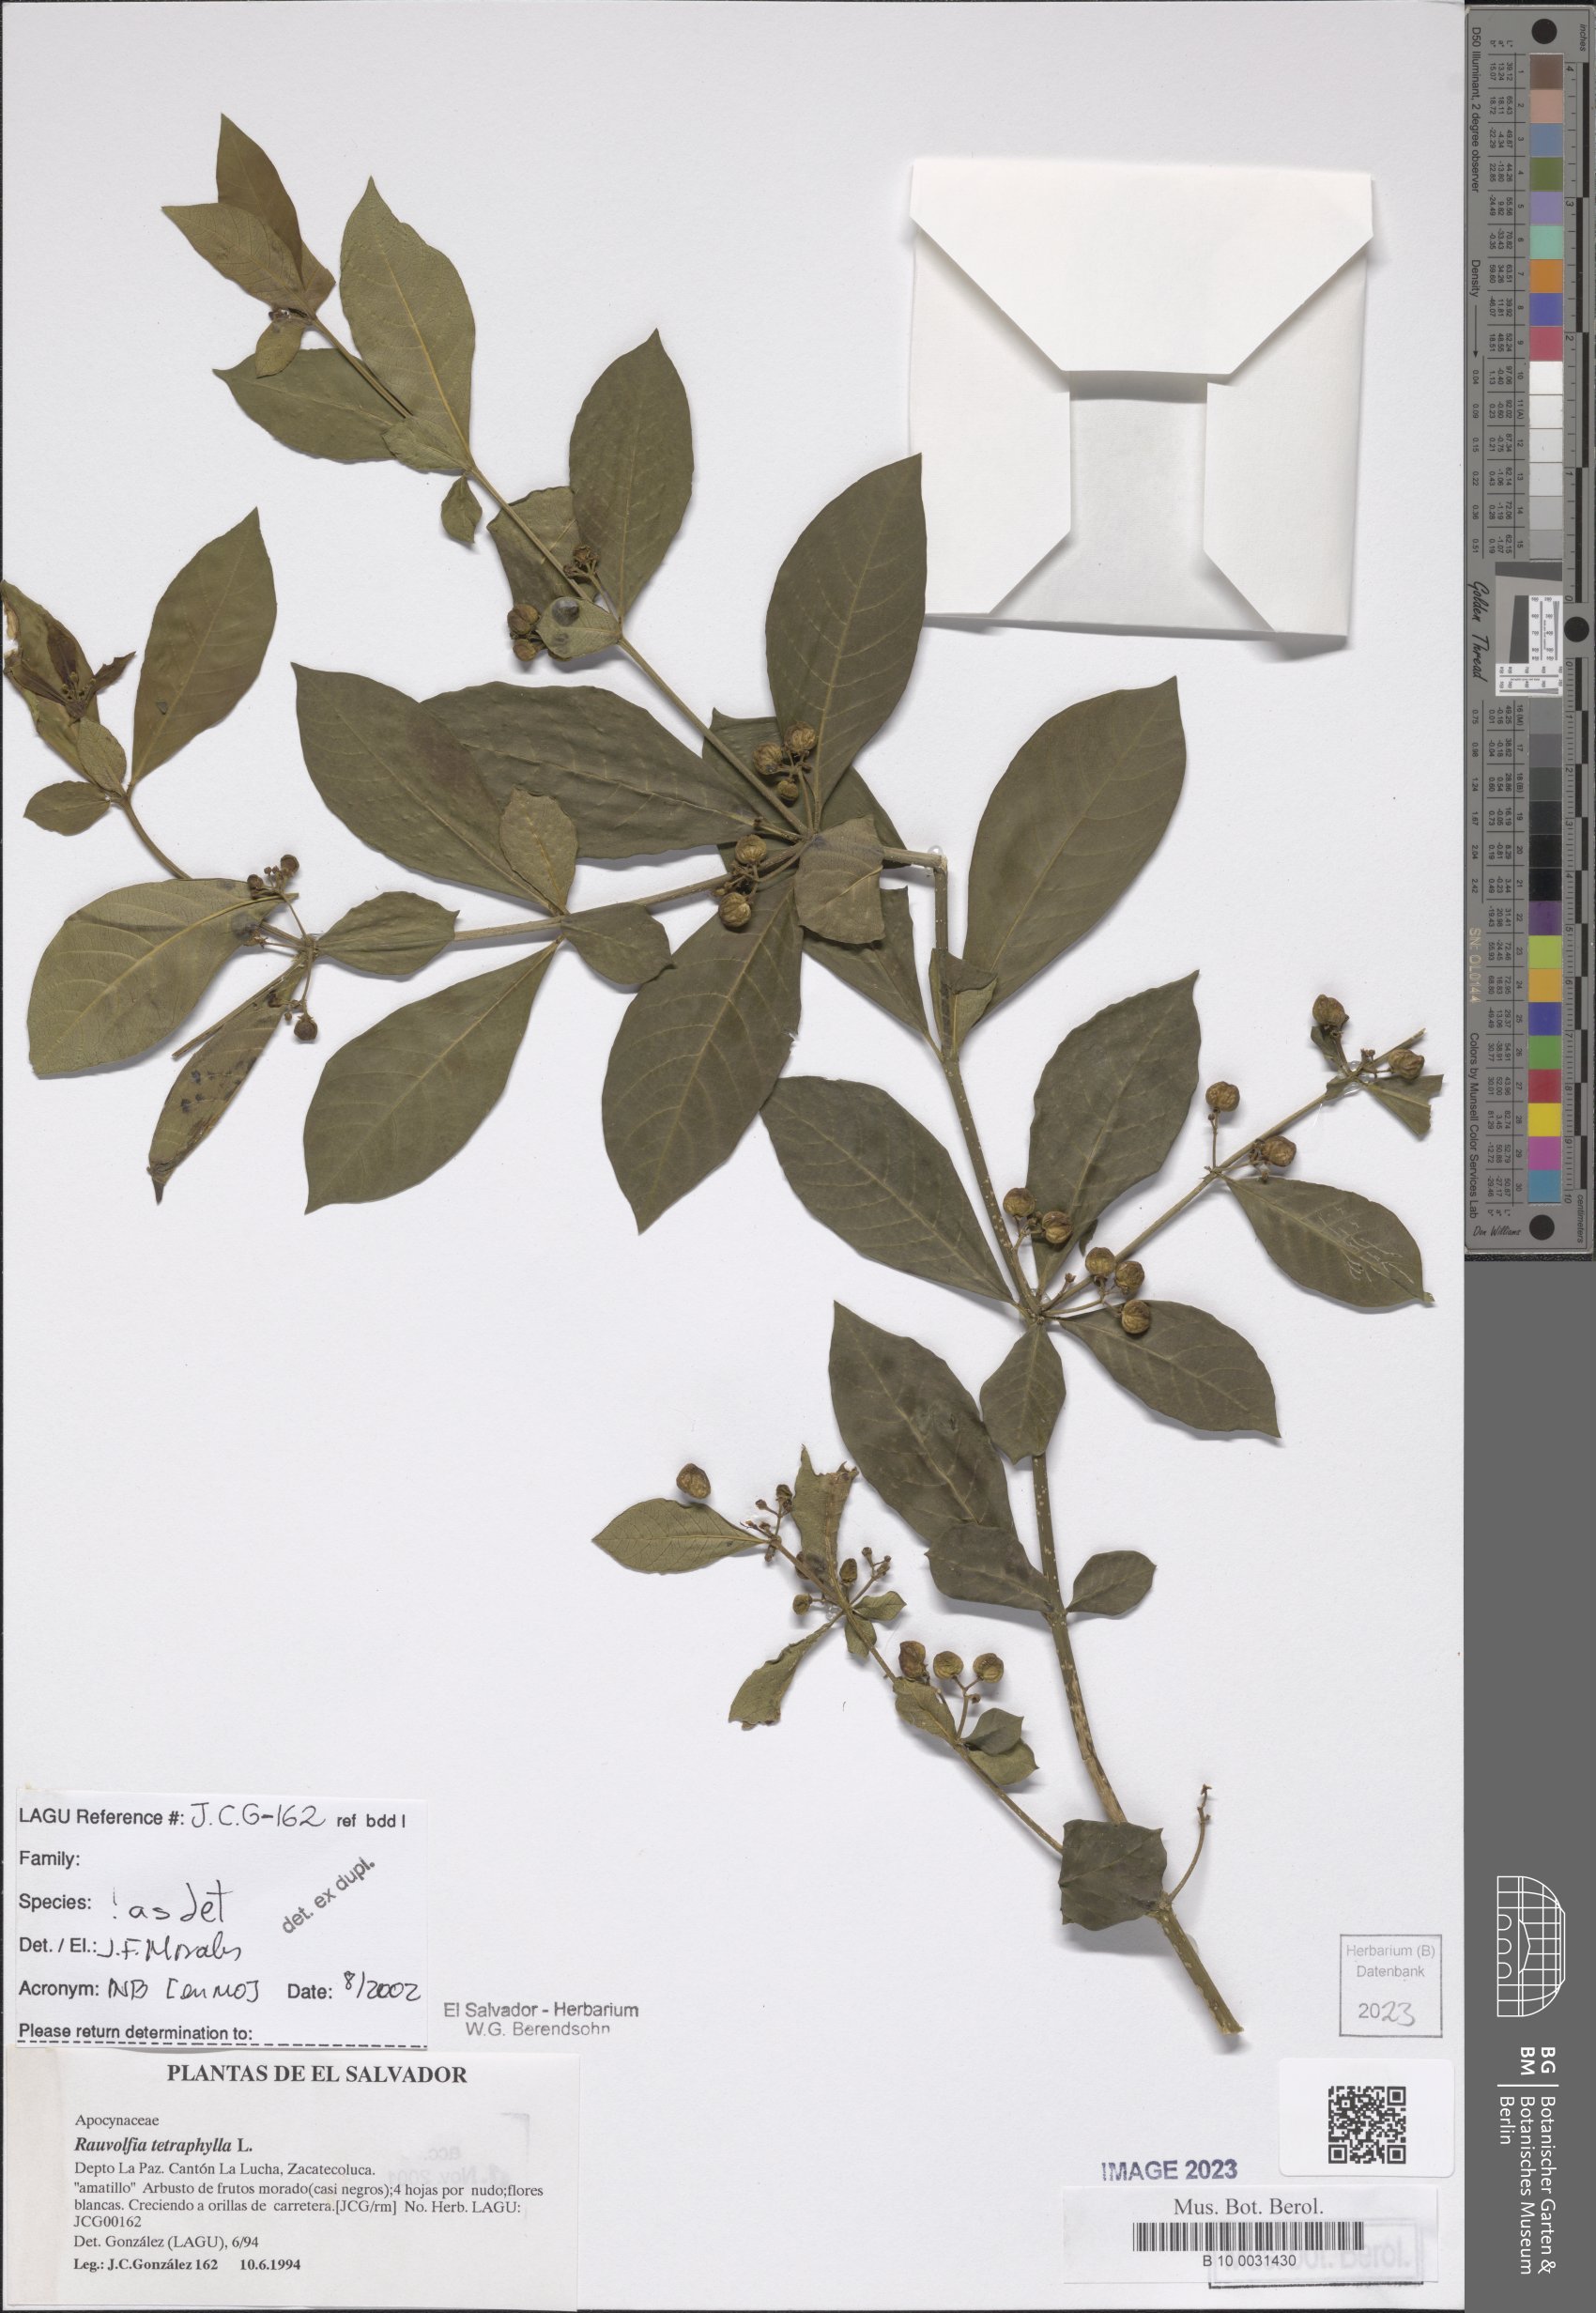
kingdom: Plantae
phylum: Tracheophyta
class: Magnoliopsida
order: Gentianales
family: Apocynaceae
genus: Rauvolfia
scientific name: Rauvolfia tetraphylla
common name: Four-leaf devil-pepper
